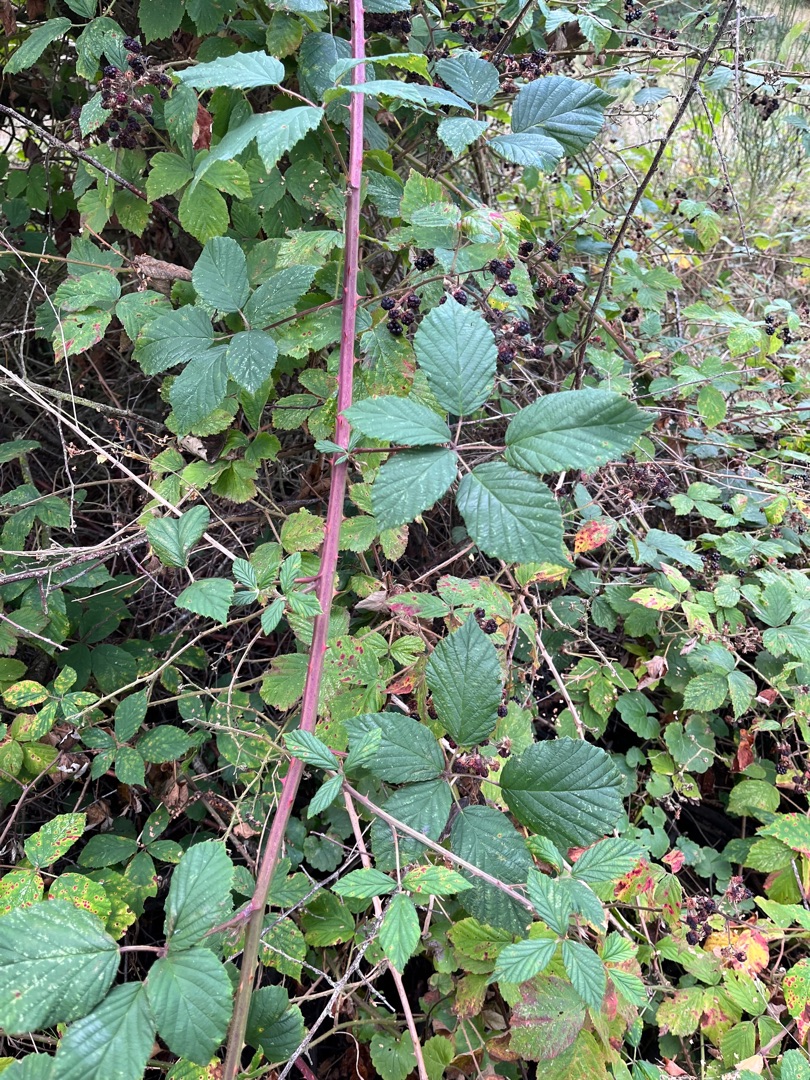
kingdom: Plantae
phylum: Tracheophyta
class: Magnoliopsida
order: Rosales
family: Rosaceae
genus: Rubus
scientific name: Rubus grabowskii
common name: Duskblomstret brombær
